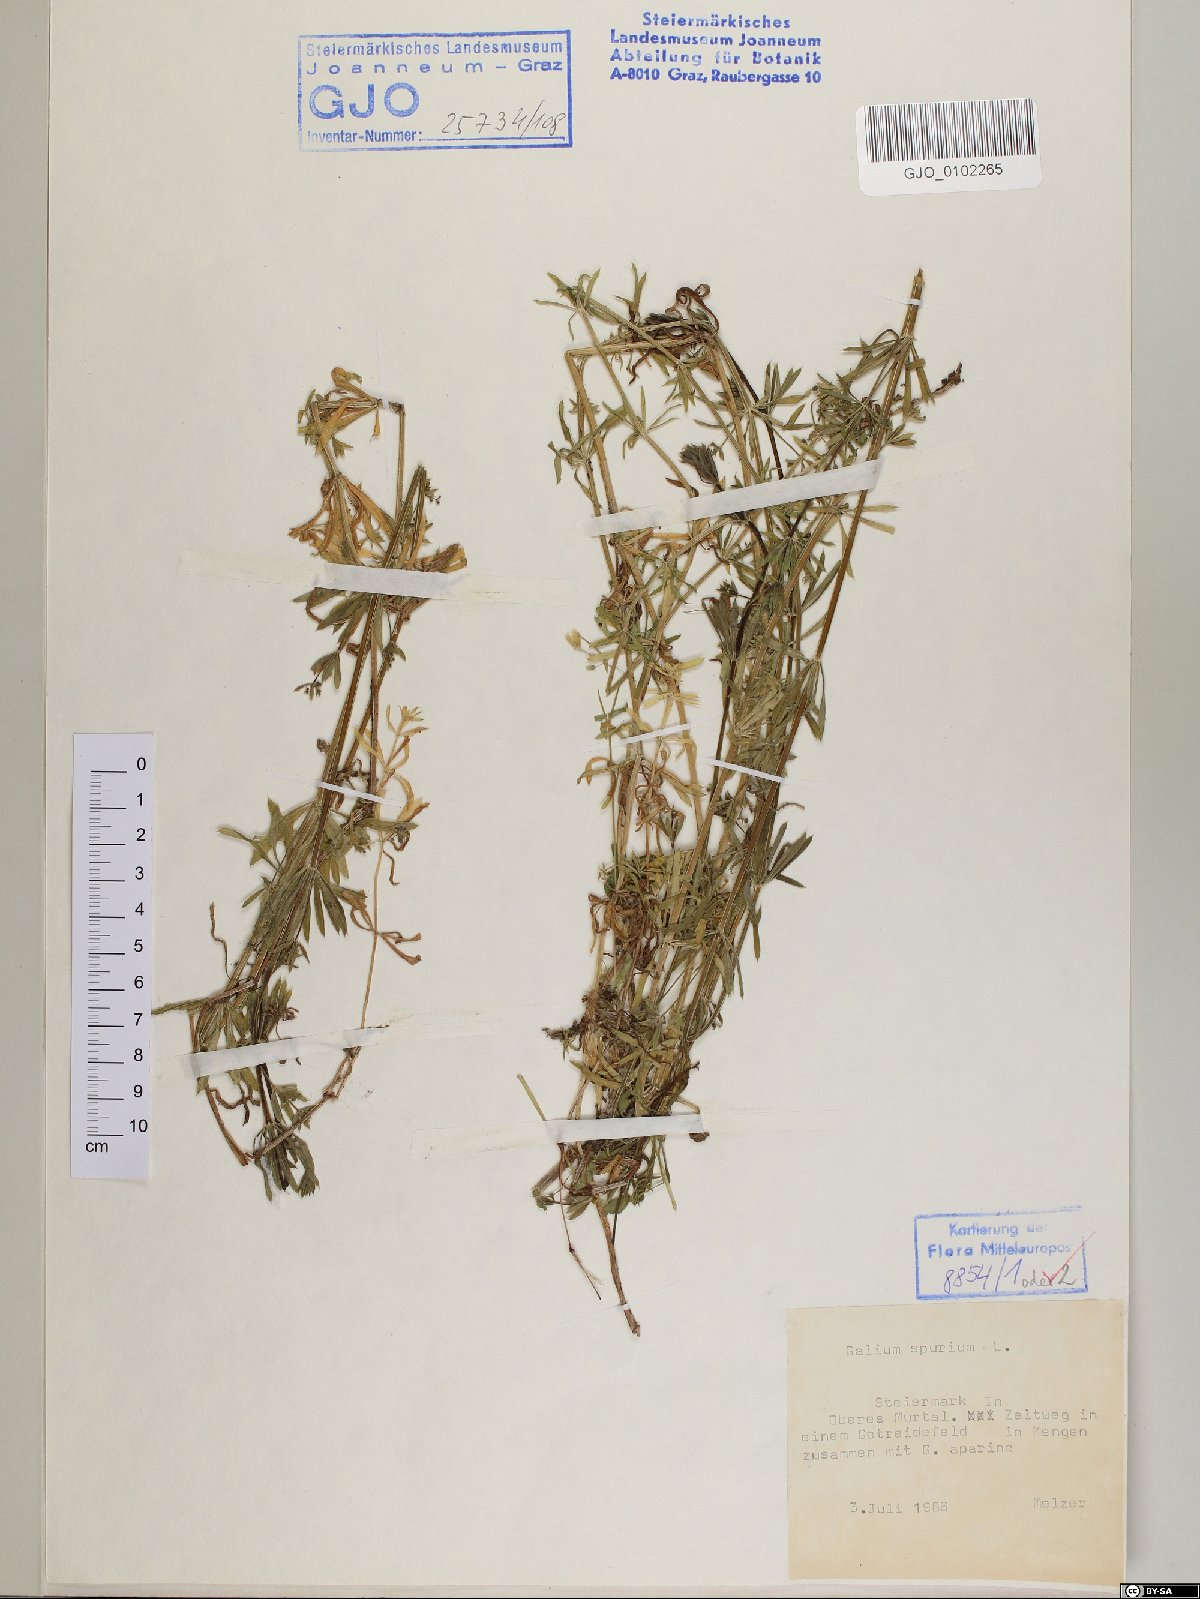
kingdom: Plantae
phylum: Tracheophyta
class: Magnoliopsida
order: Gentianales
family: Rubiaceae
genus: Galium
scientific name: Galium spurium
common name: False cleavers
